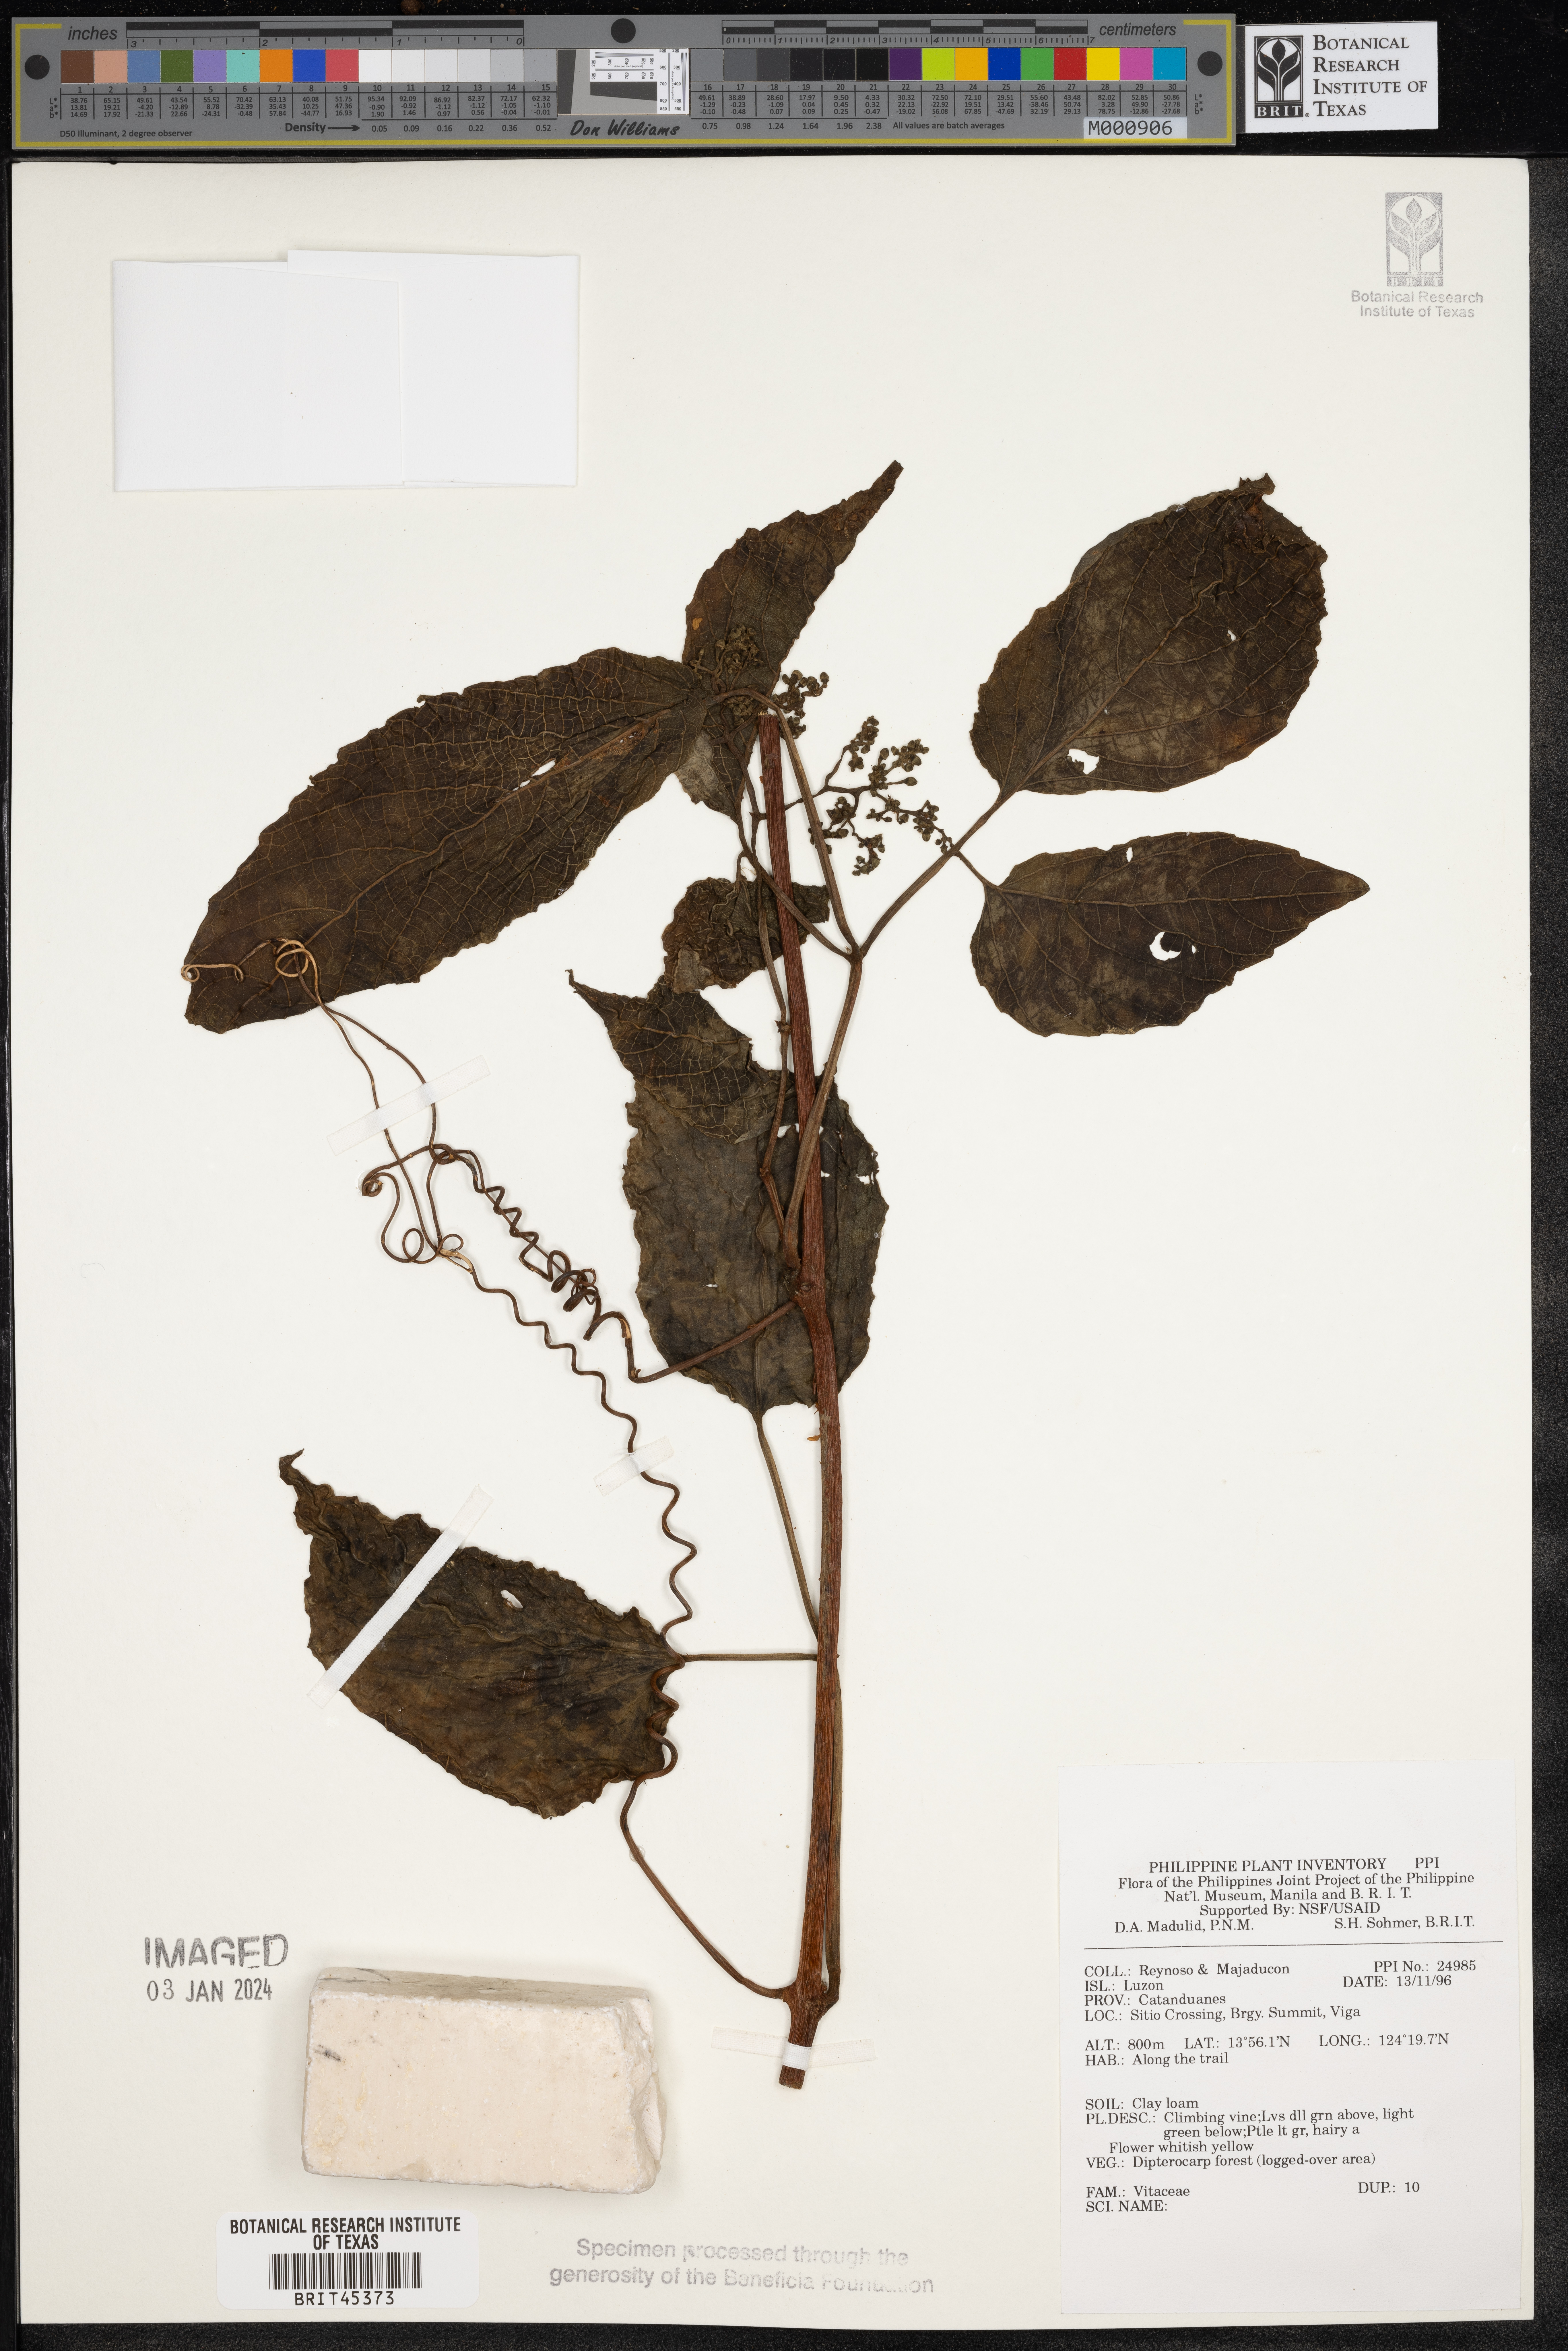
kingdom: Plantae
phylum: Tracheophyta
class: Magnoliopsida
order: Vitales
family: Vitaceae
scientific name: Vitaceae
